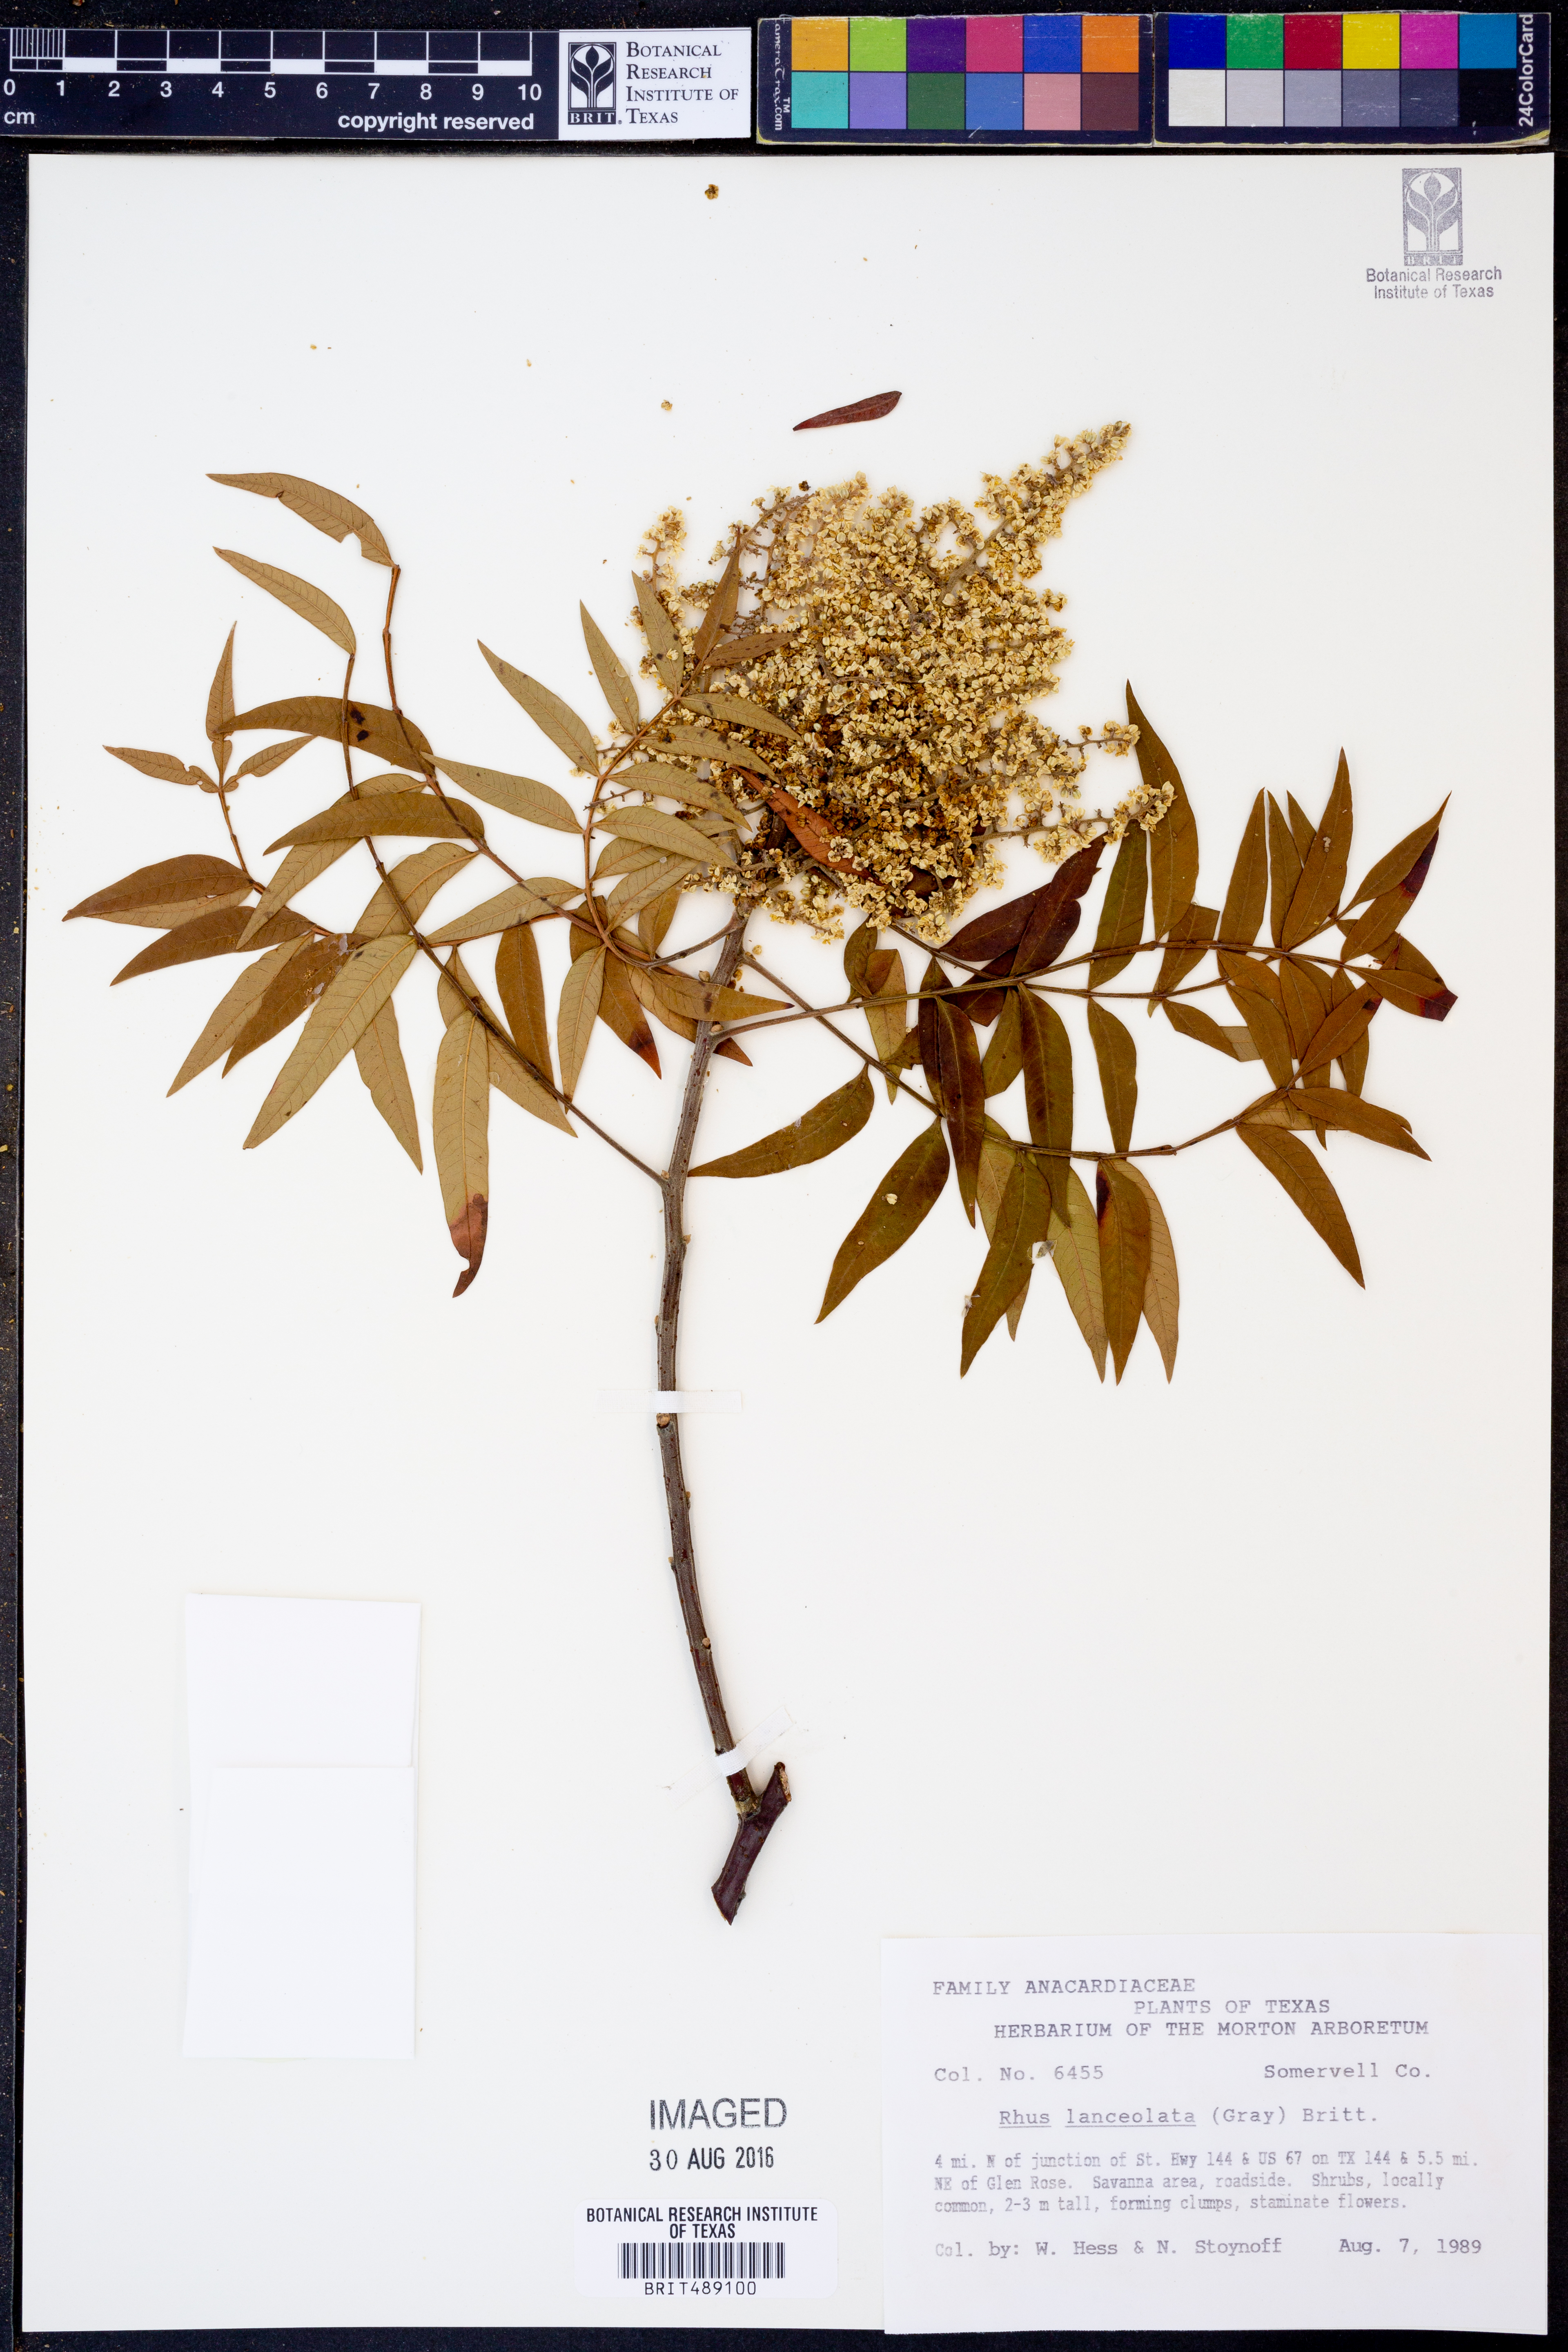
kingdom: Plantae
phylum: Tracheophyta
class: Magnoliopsida
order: Sapindales
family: Anacardiaceae
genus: Rhus
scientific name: Rhus lanceolata
